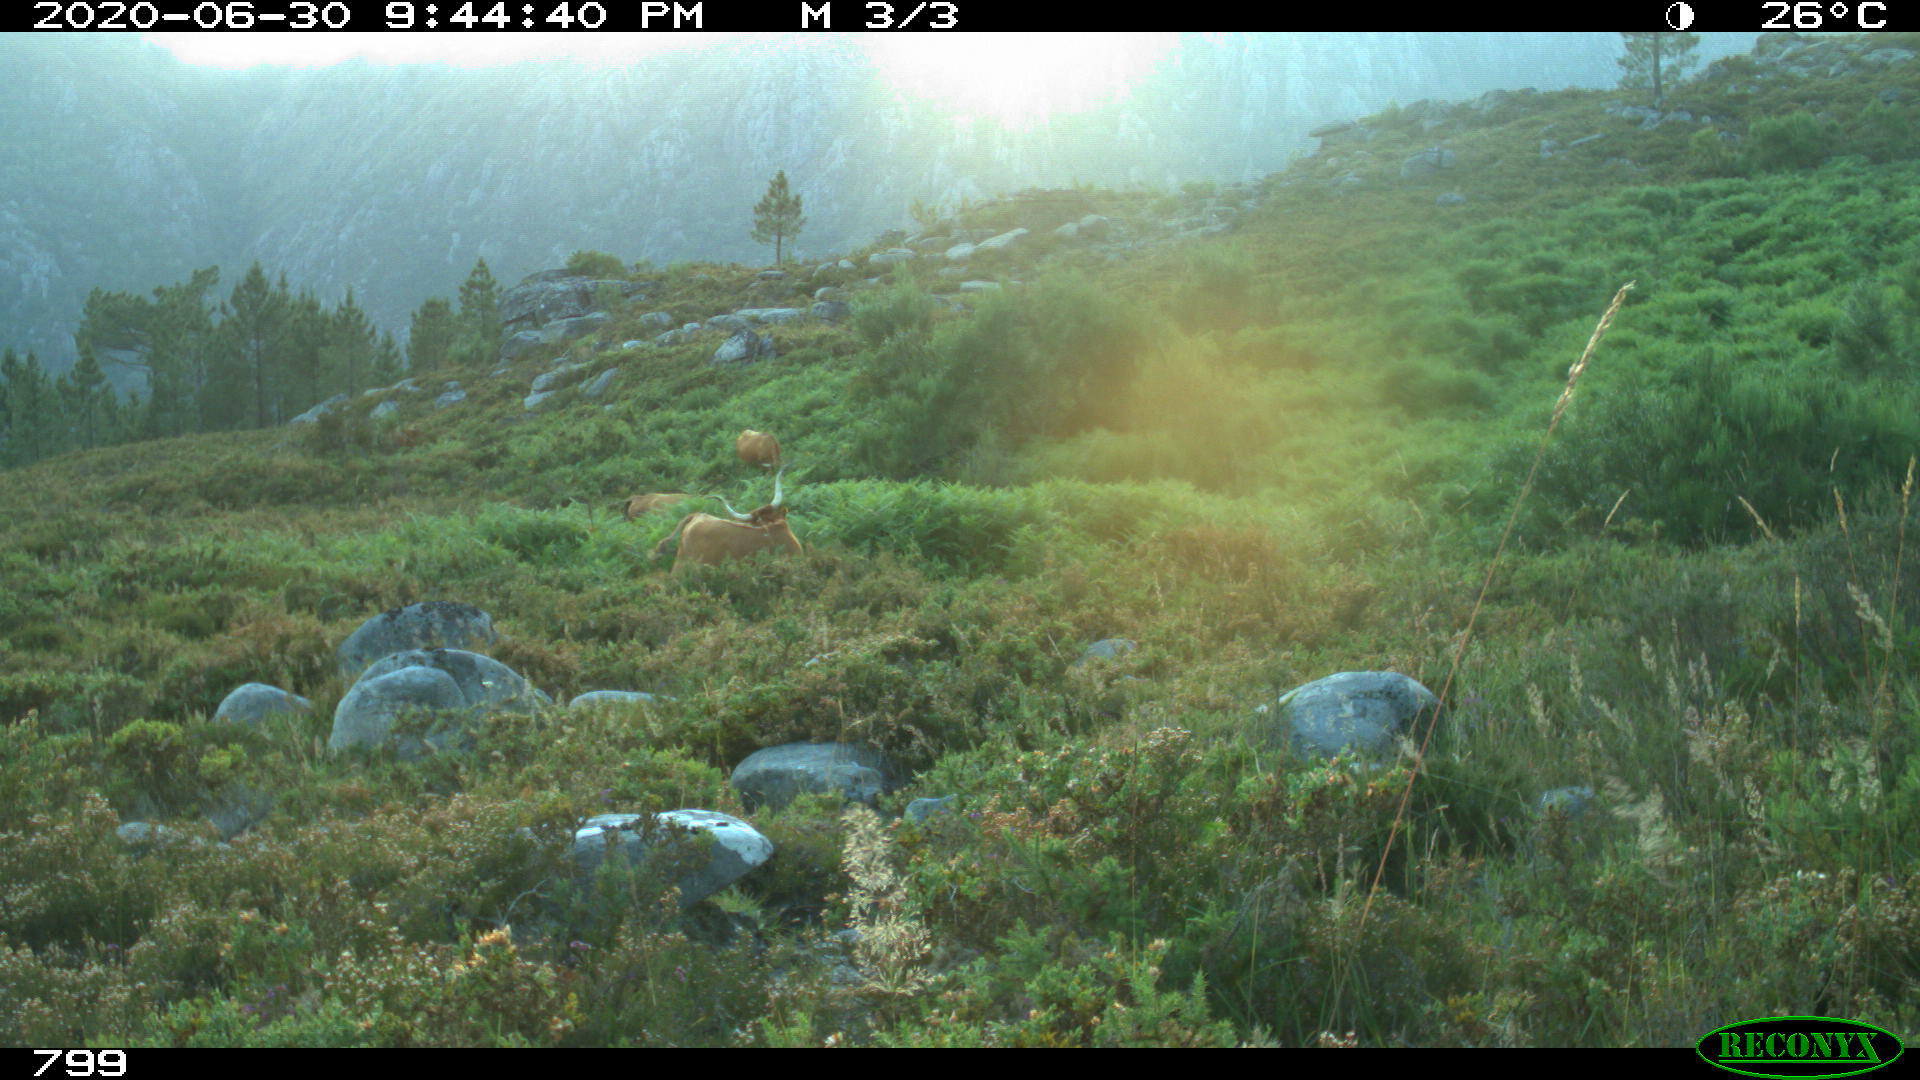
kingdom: Animalia
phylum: Chordata
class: Mammalia
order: Artiodactyla
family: Bovidae
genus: Bos
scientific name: Bos taurus
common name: Domesticated cattle
